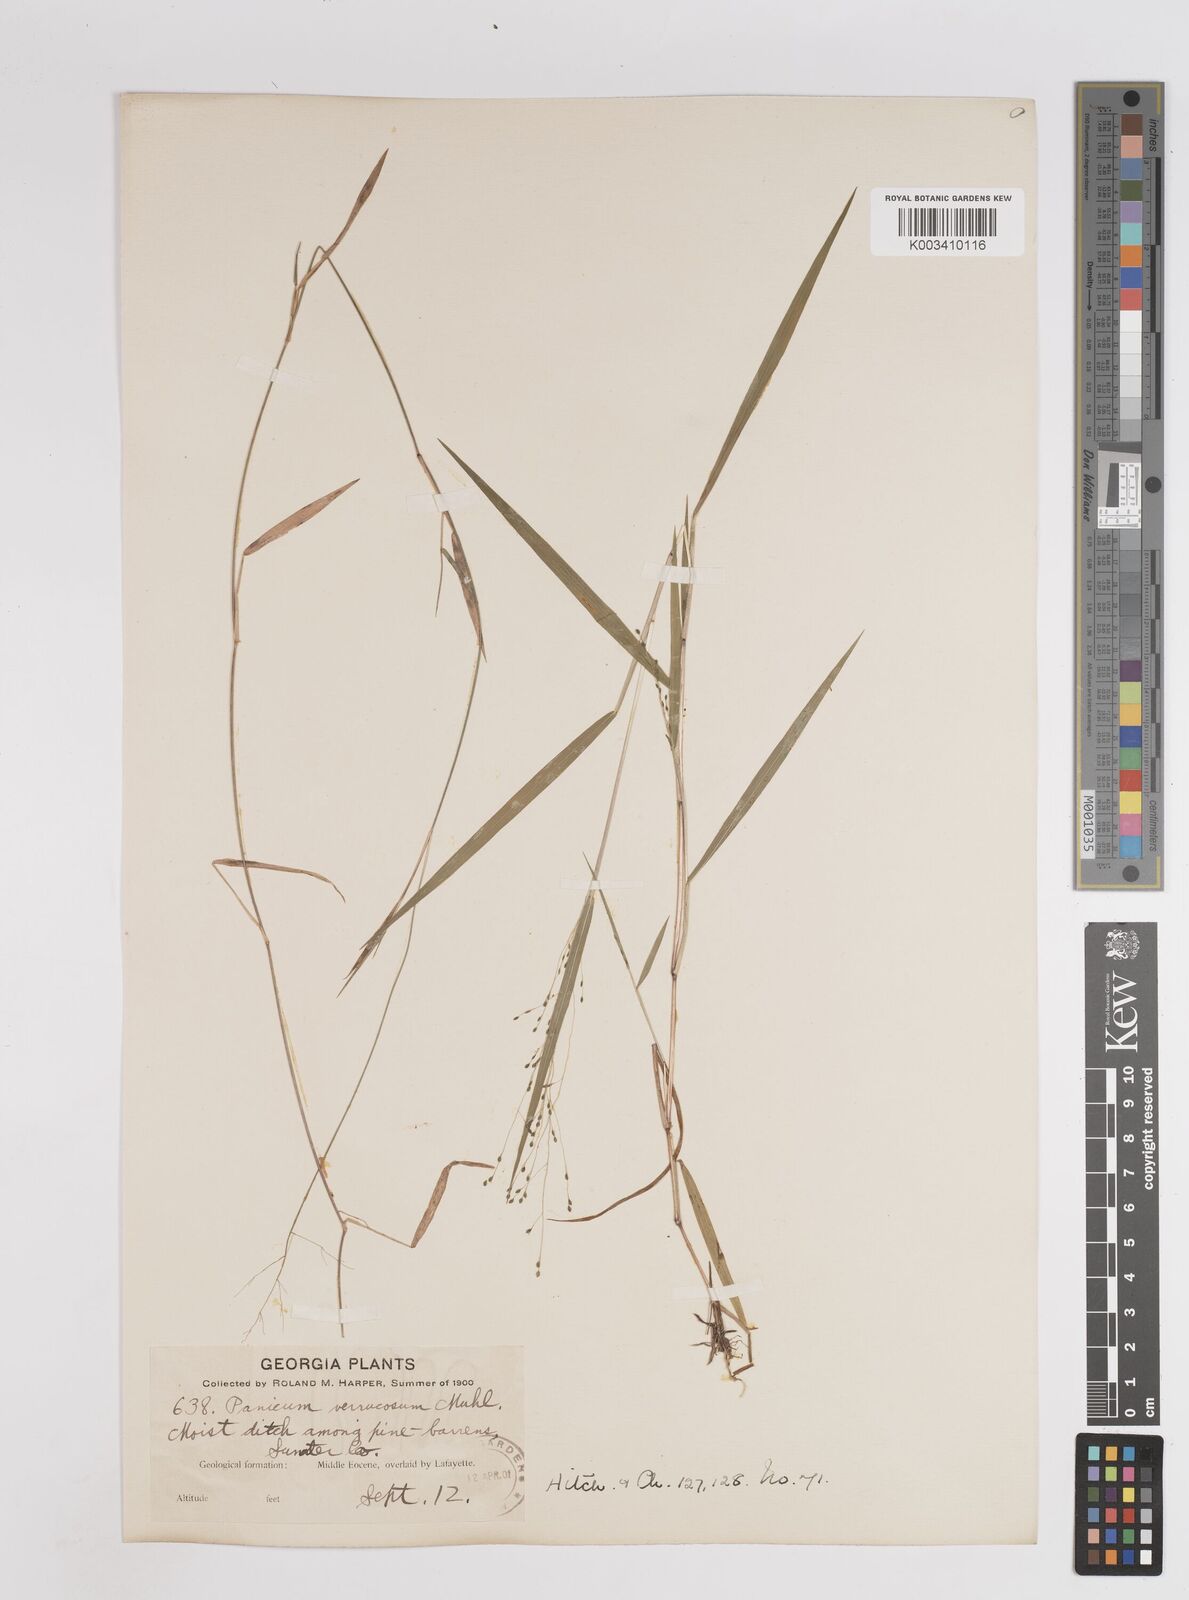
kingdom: Plantae
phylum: Tracheophyta
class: Liliopsida
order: Poales
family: Poaceae
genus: Kellochloa
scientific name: Kellochloa verrucosa
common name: Warty panic grass
